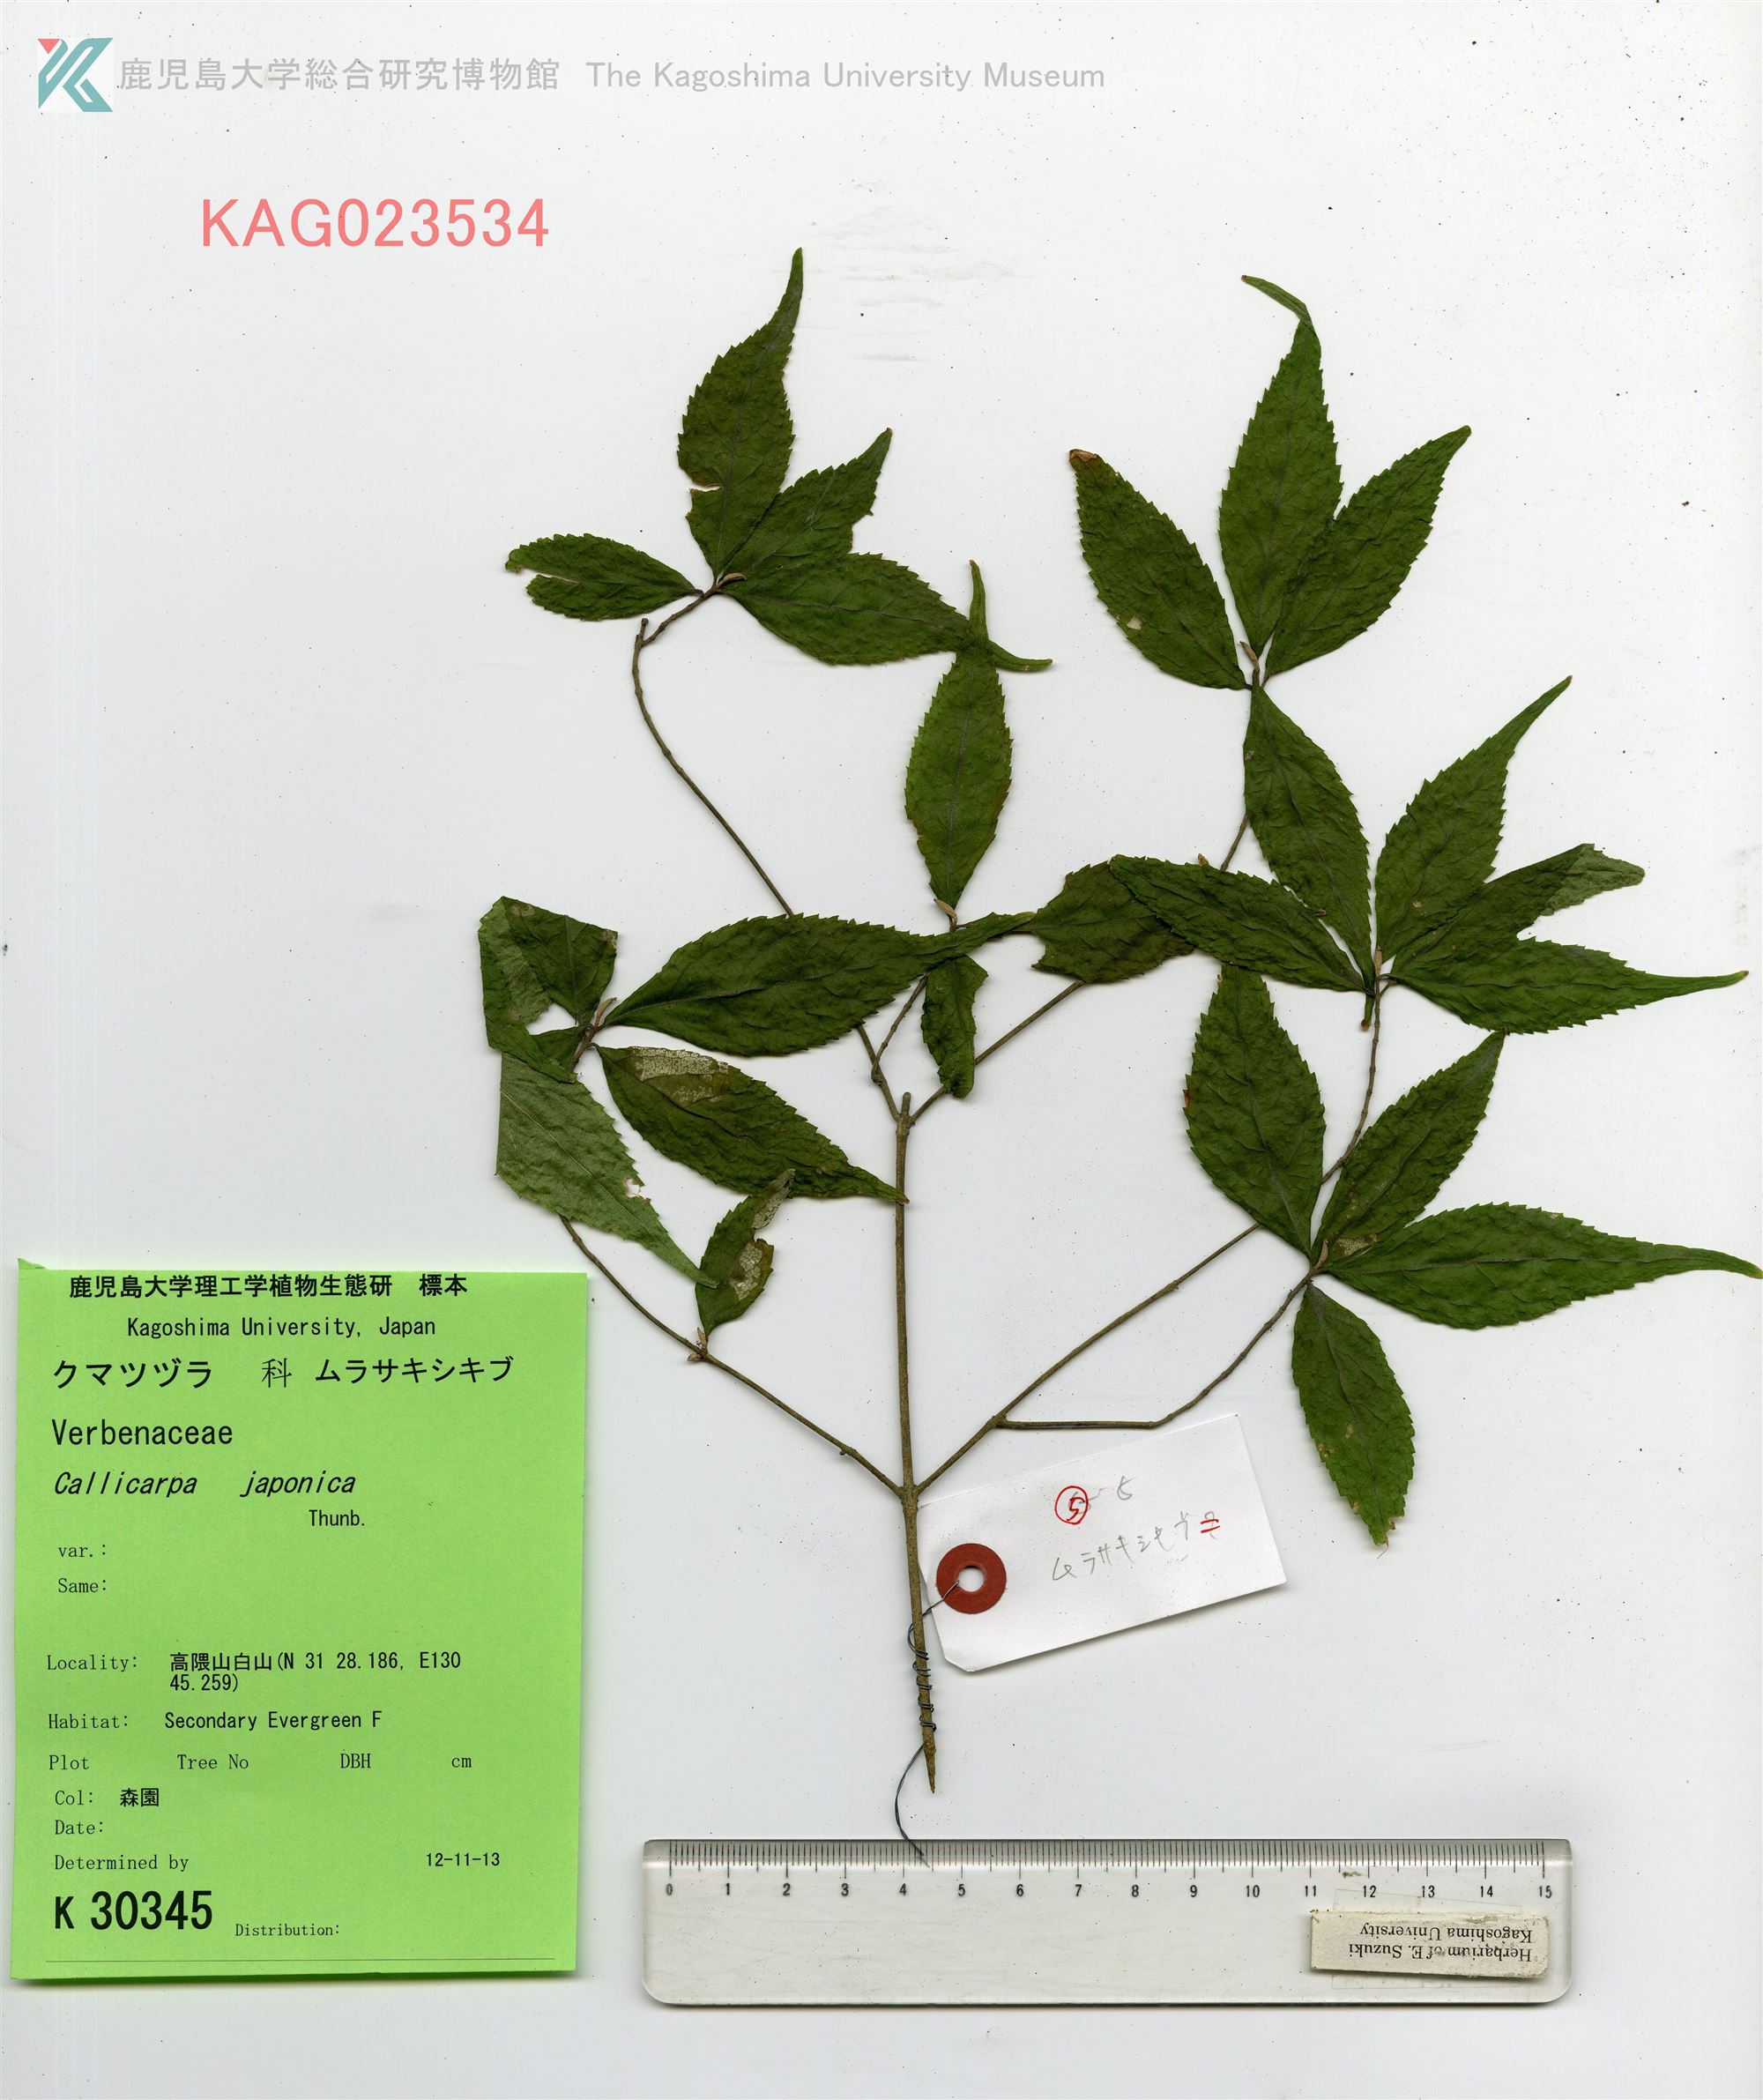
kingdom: Plantae
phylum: Tracheophyta
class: Magnoliopsida
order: Lamiales
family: Lamiaceae
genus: Callicarpa
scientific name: Callicarpa japonica
